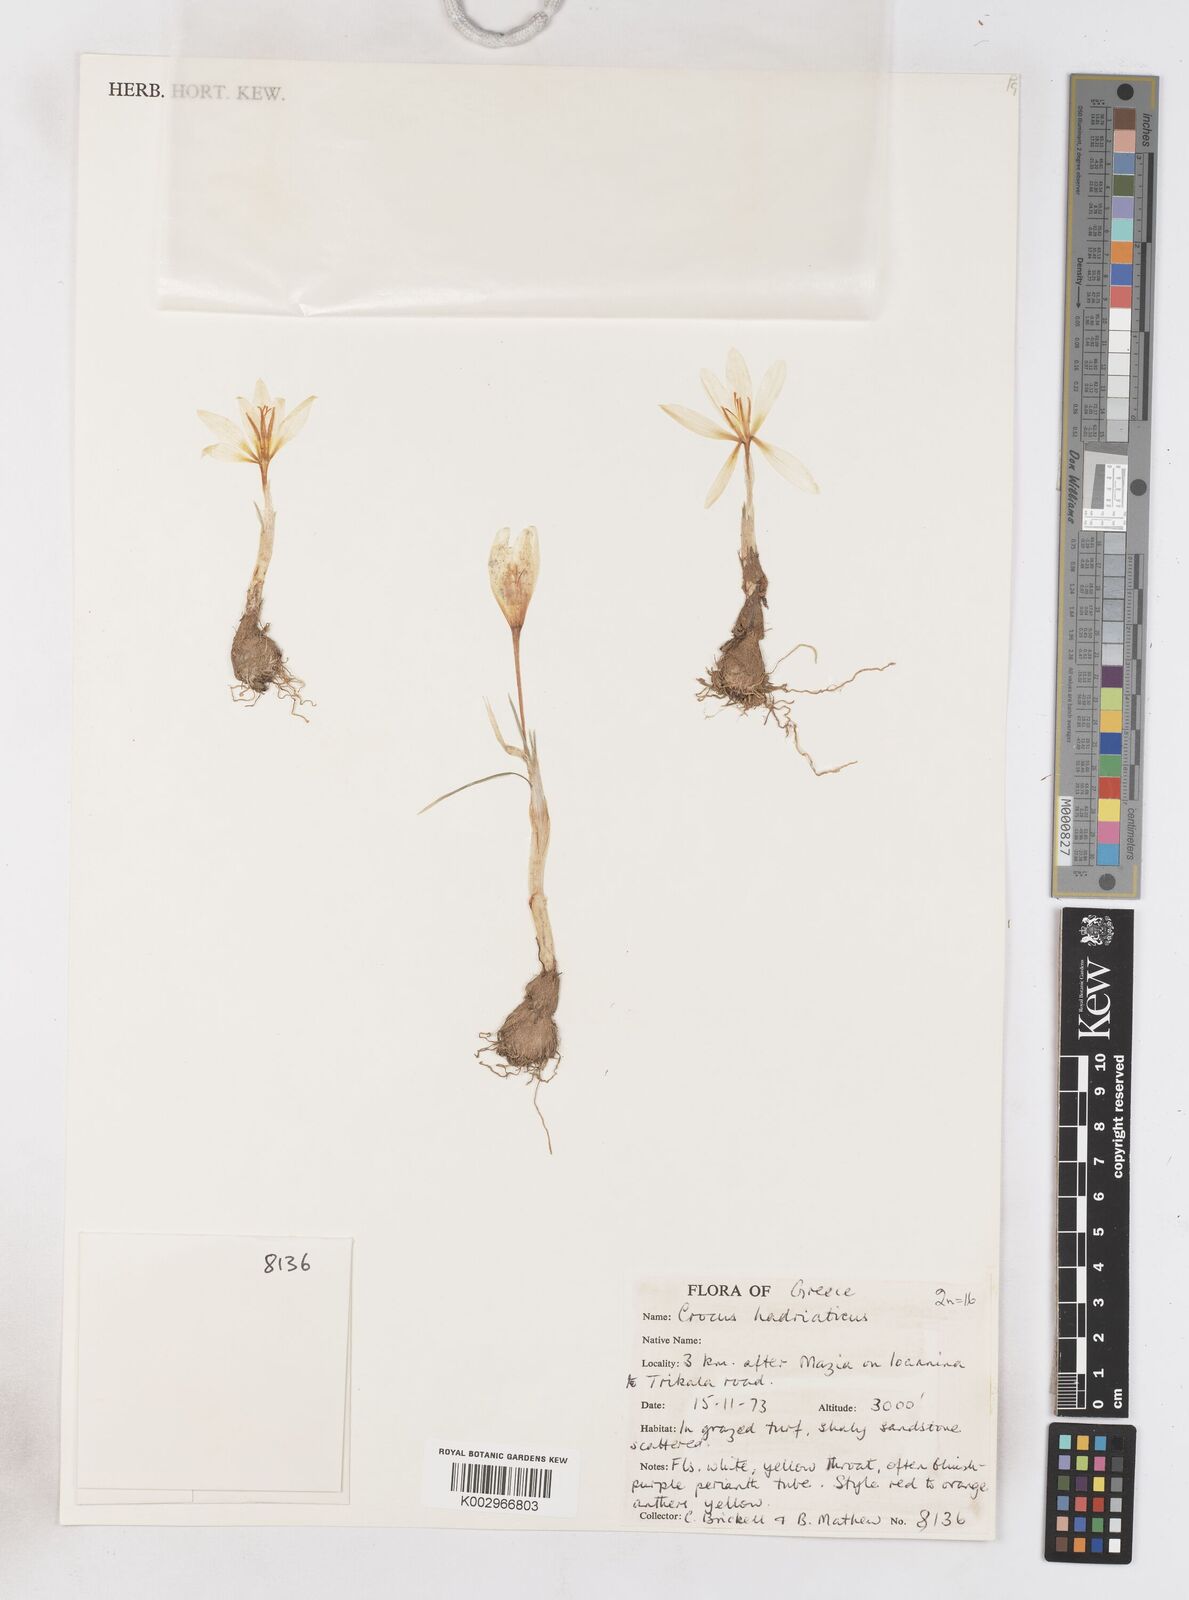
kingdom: Plantae
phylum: Tracheophyta
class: Liliopsida
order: Asparagales
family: Iridaceae
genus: Crocus
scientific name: Crocus hadriaticus
